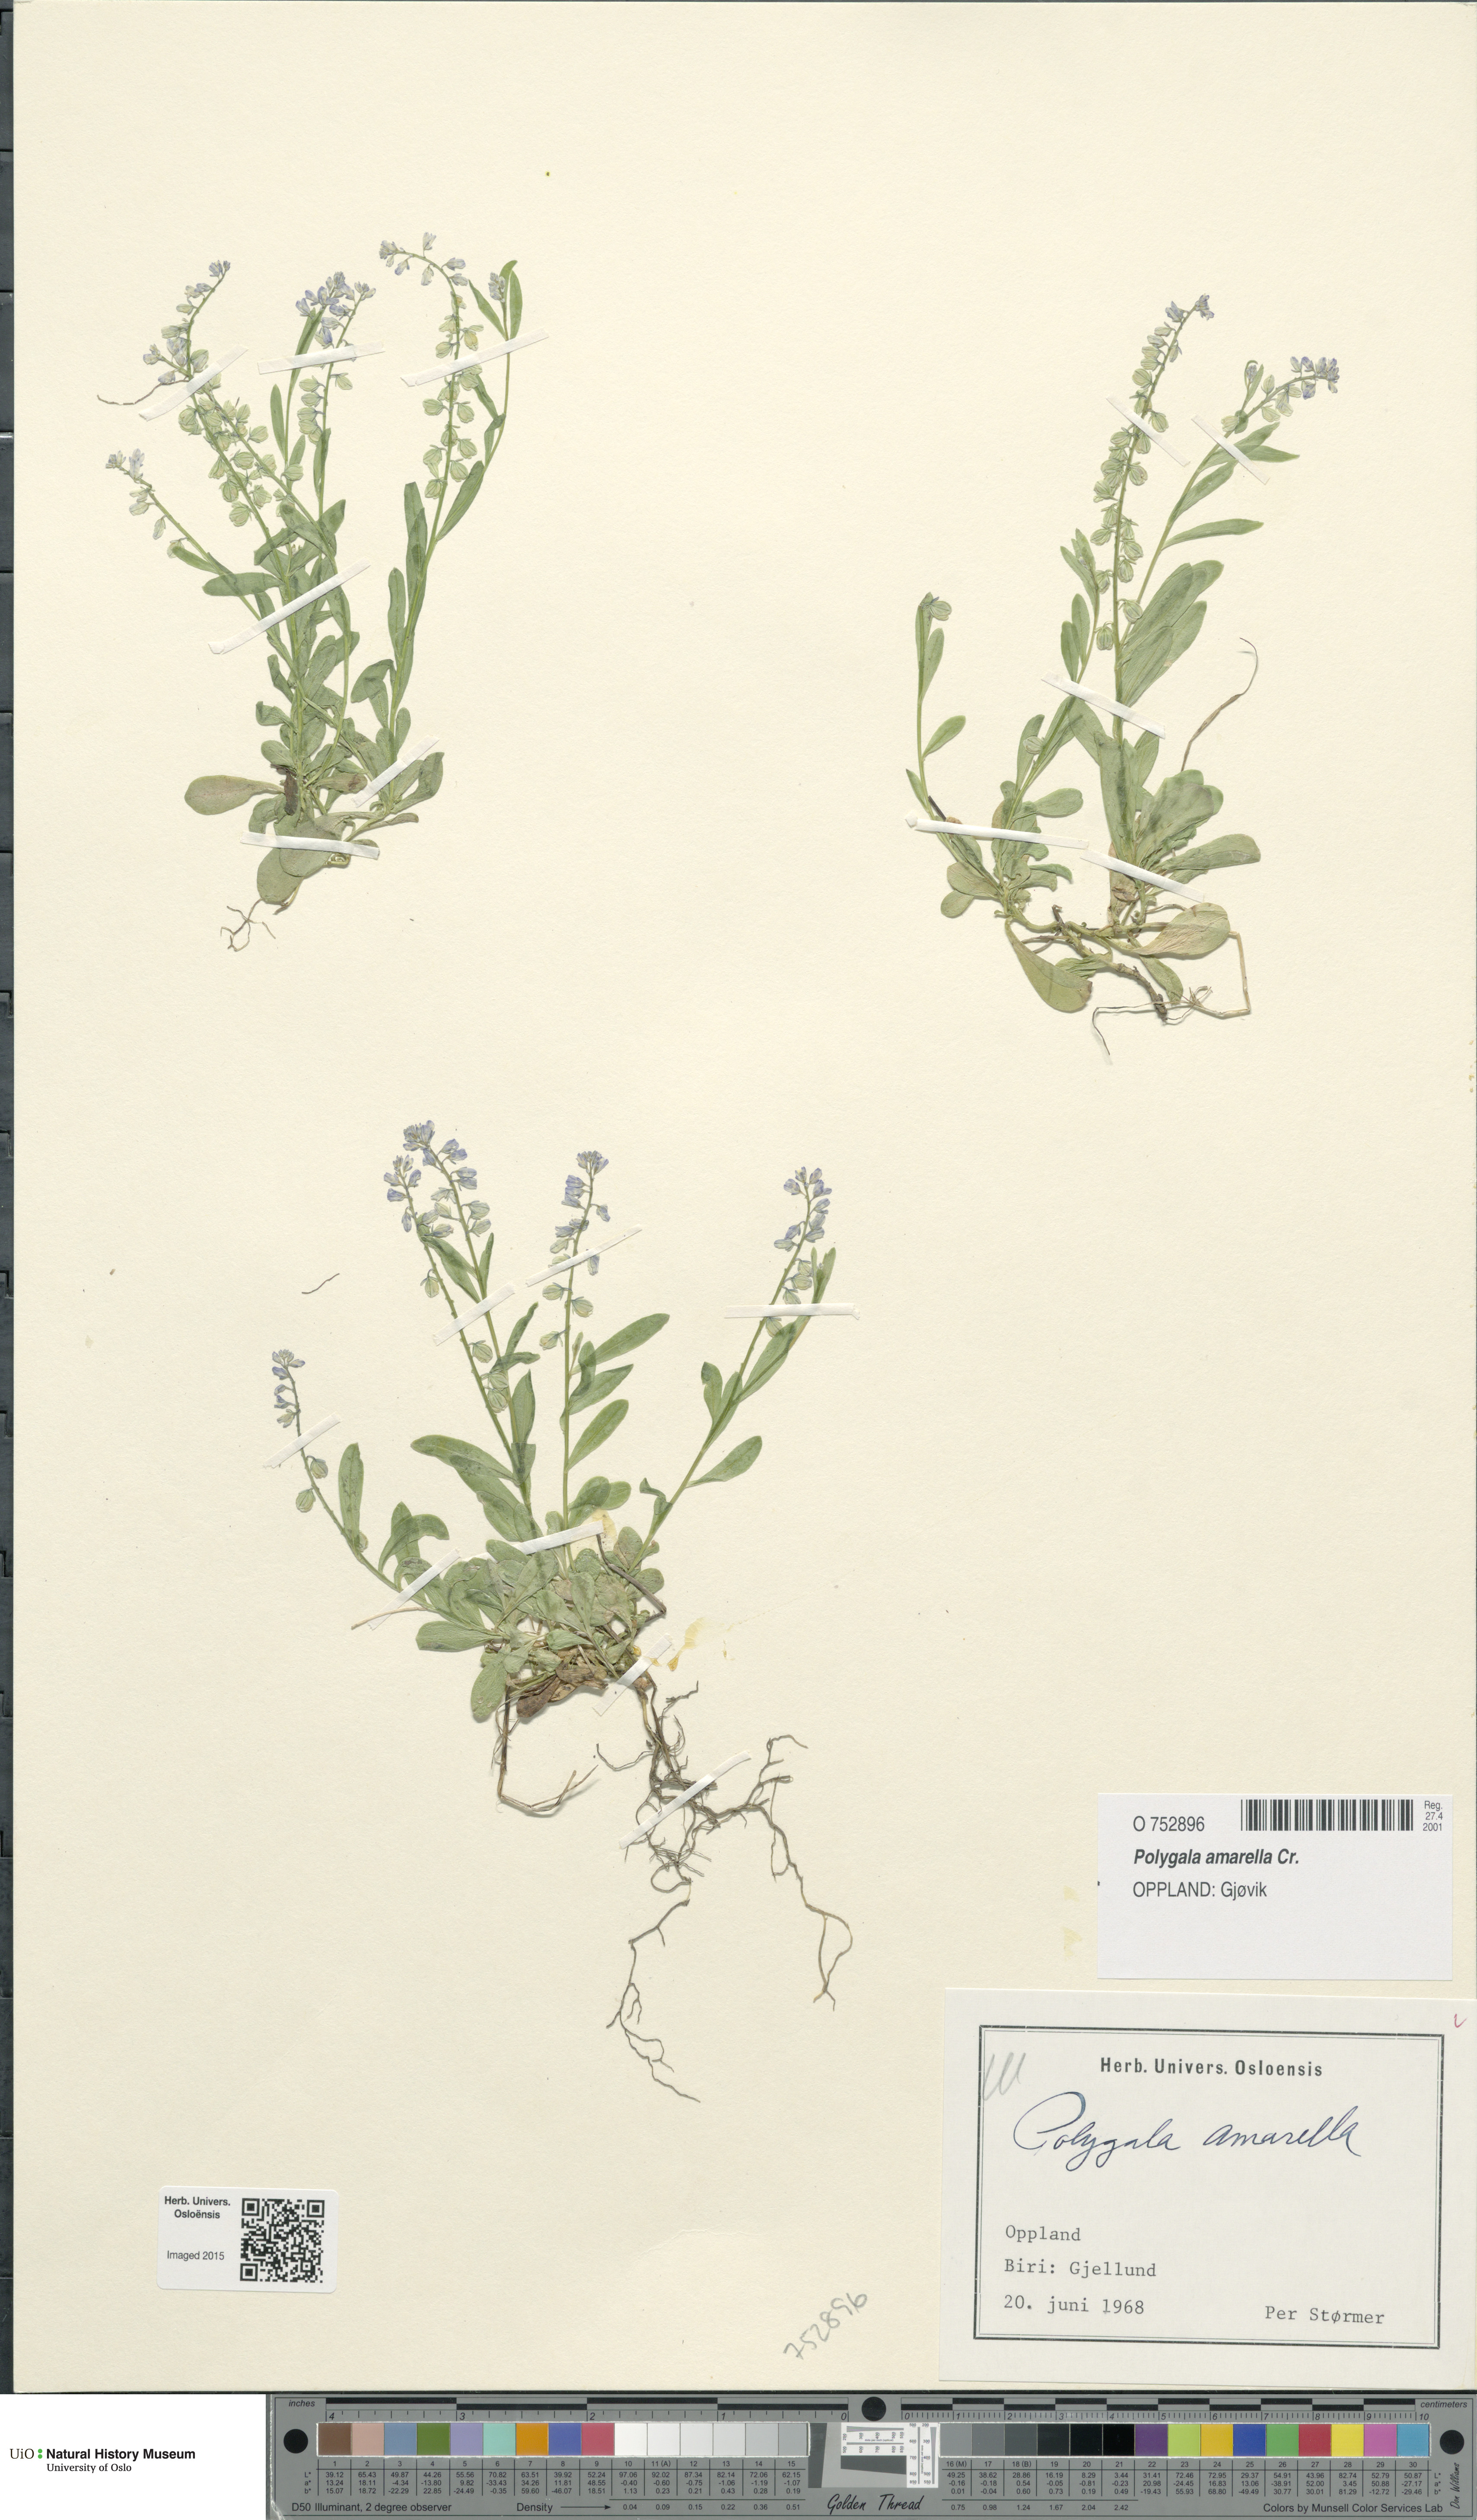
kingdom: Plantae
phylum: Tracheophyta
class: Magnoliopsida
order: Fabales
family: Polygalaceae
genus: Polygala
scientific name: Polygala amarella
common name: Dwarf milkwort
